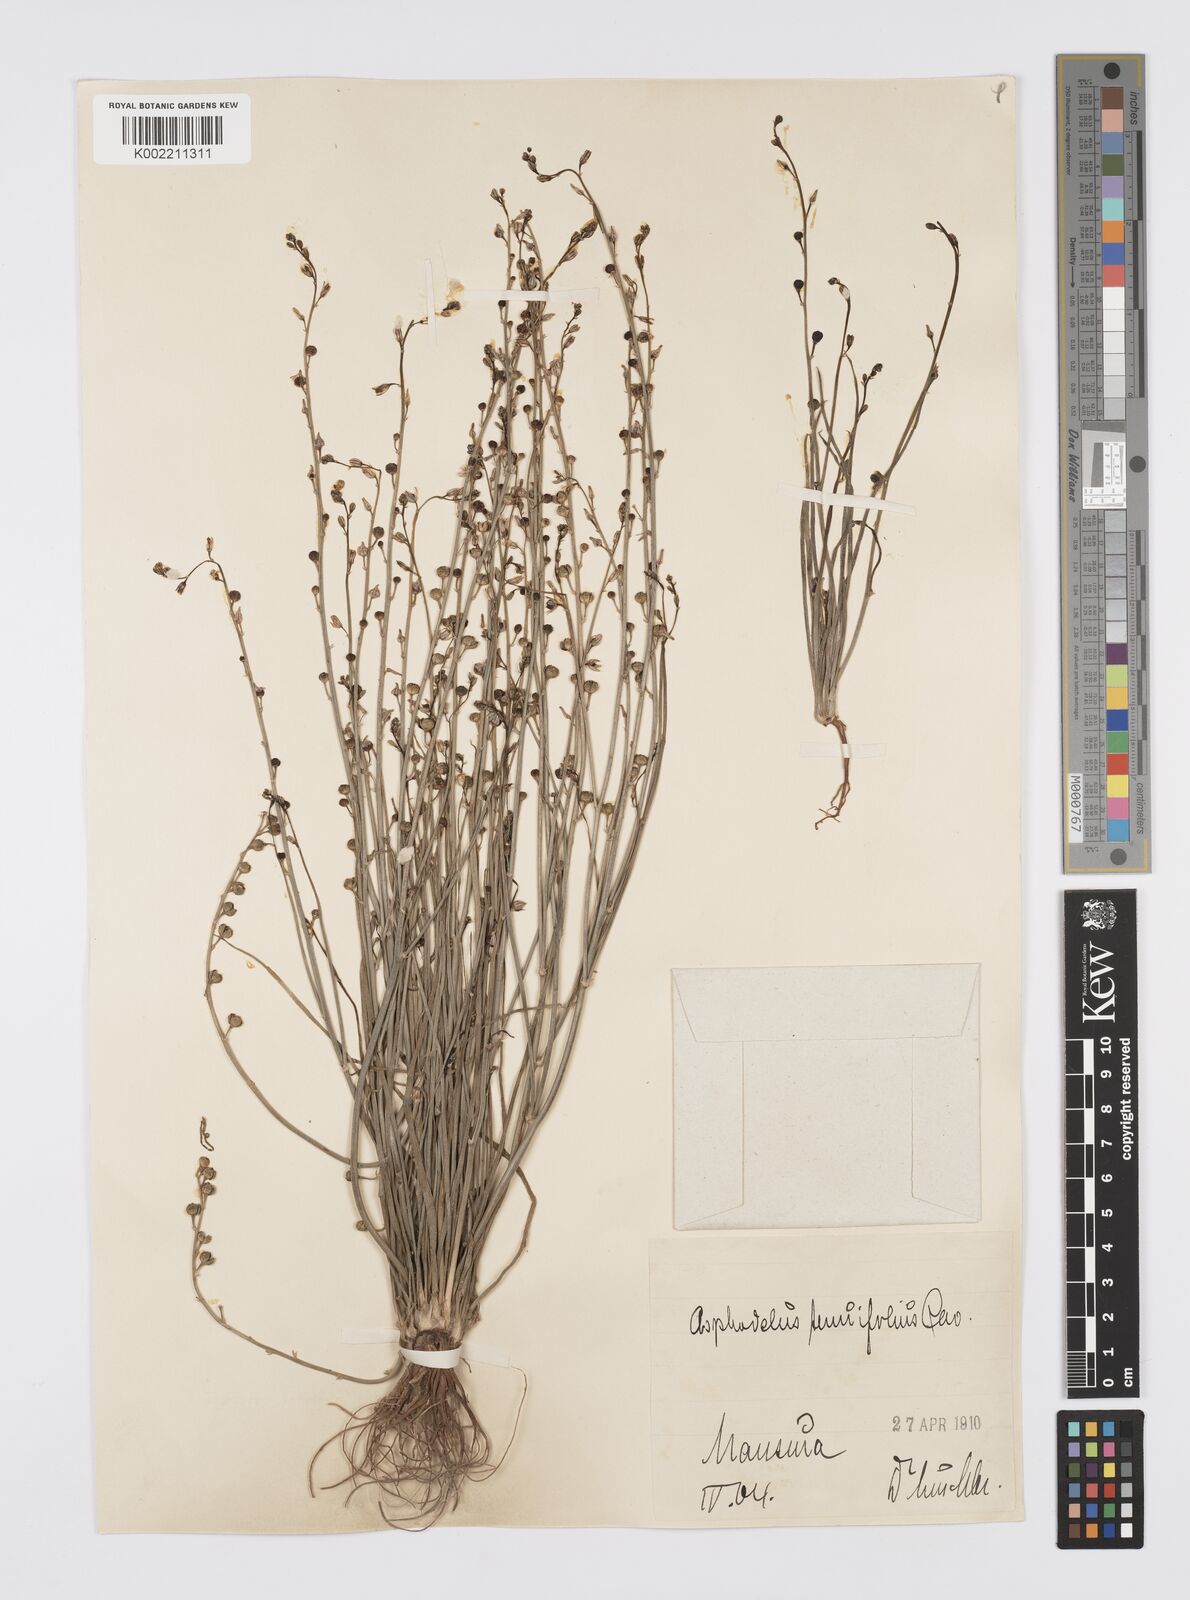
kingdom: Plantae
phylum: Tracheophyta
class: Liliopsida
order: Asparagales
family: Asphodelaceae
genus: Asphodeline
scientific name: Asphodeline tenuior
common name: Thin asphodeline
